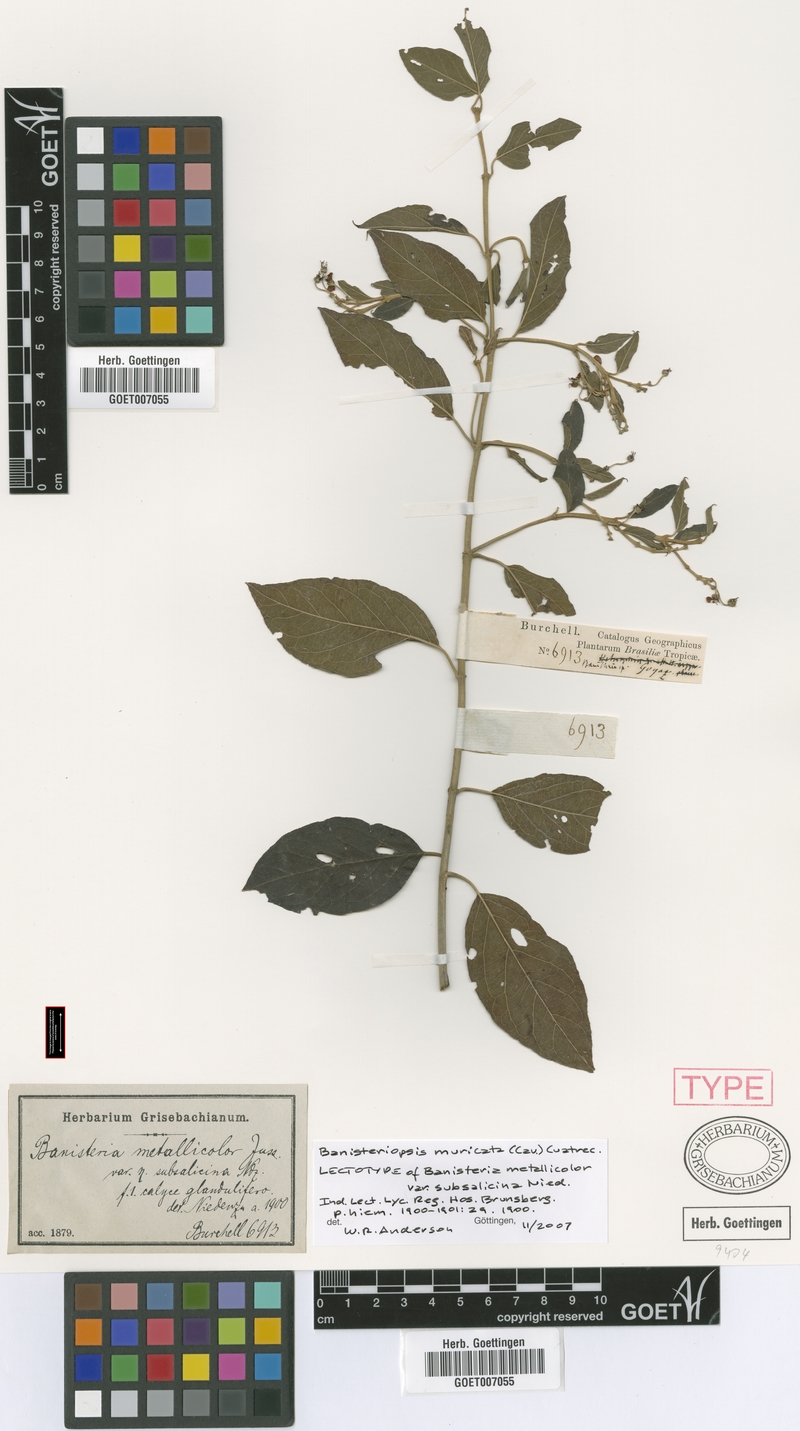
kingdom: Plantae
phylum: Tracheophyta
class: Magnoliopsida
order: Malpighiales
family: Malpighiaceae
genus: Banisteriopsis
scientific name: Banisteriopsis muricata
